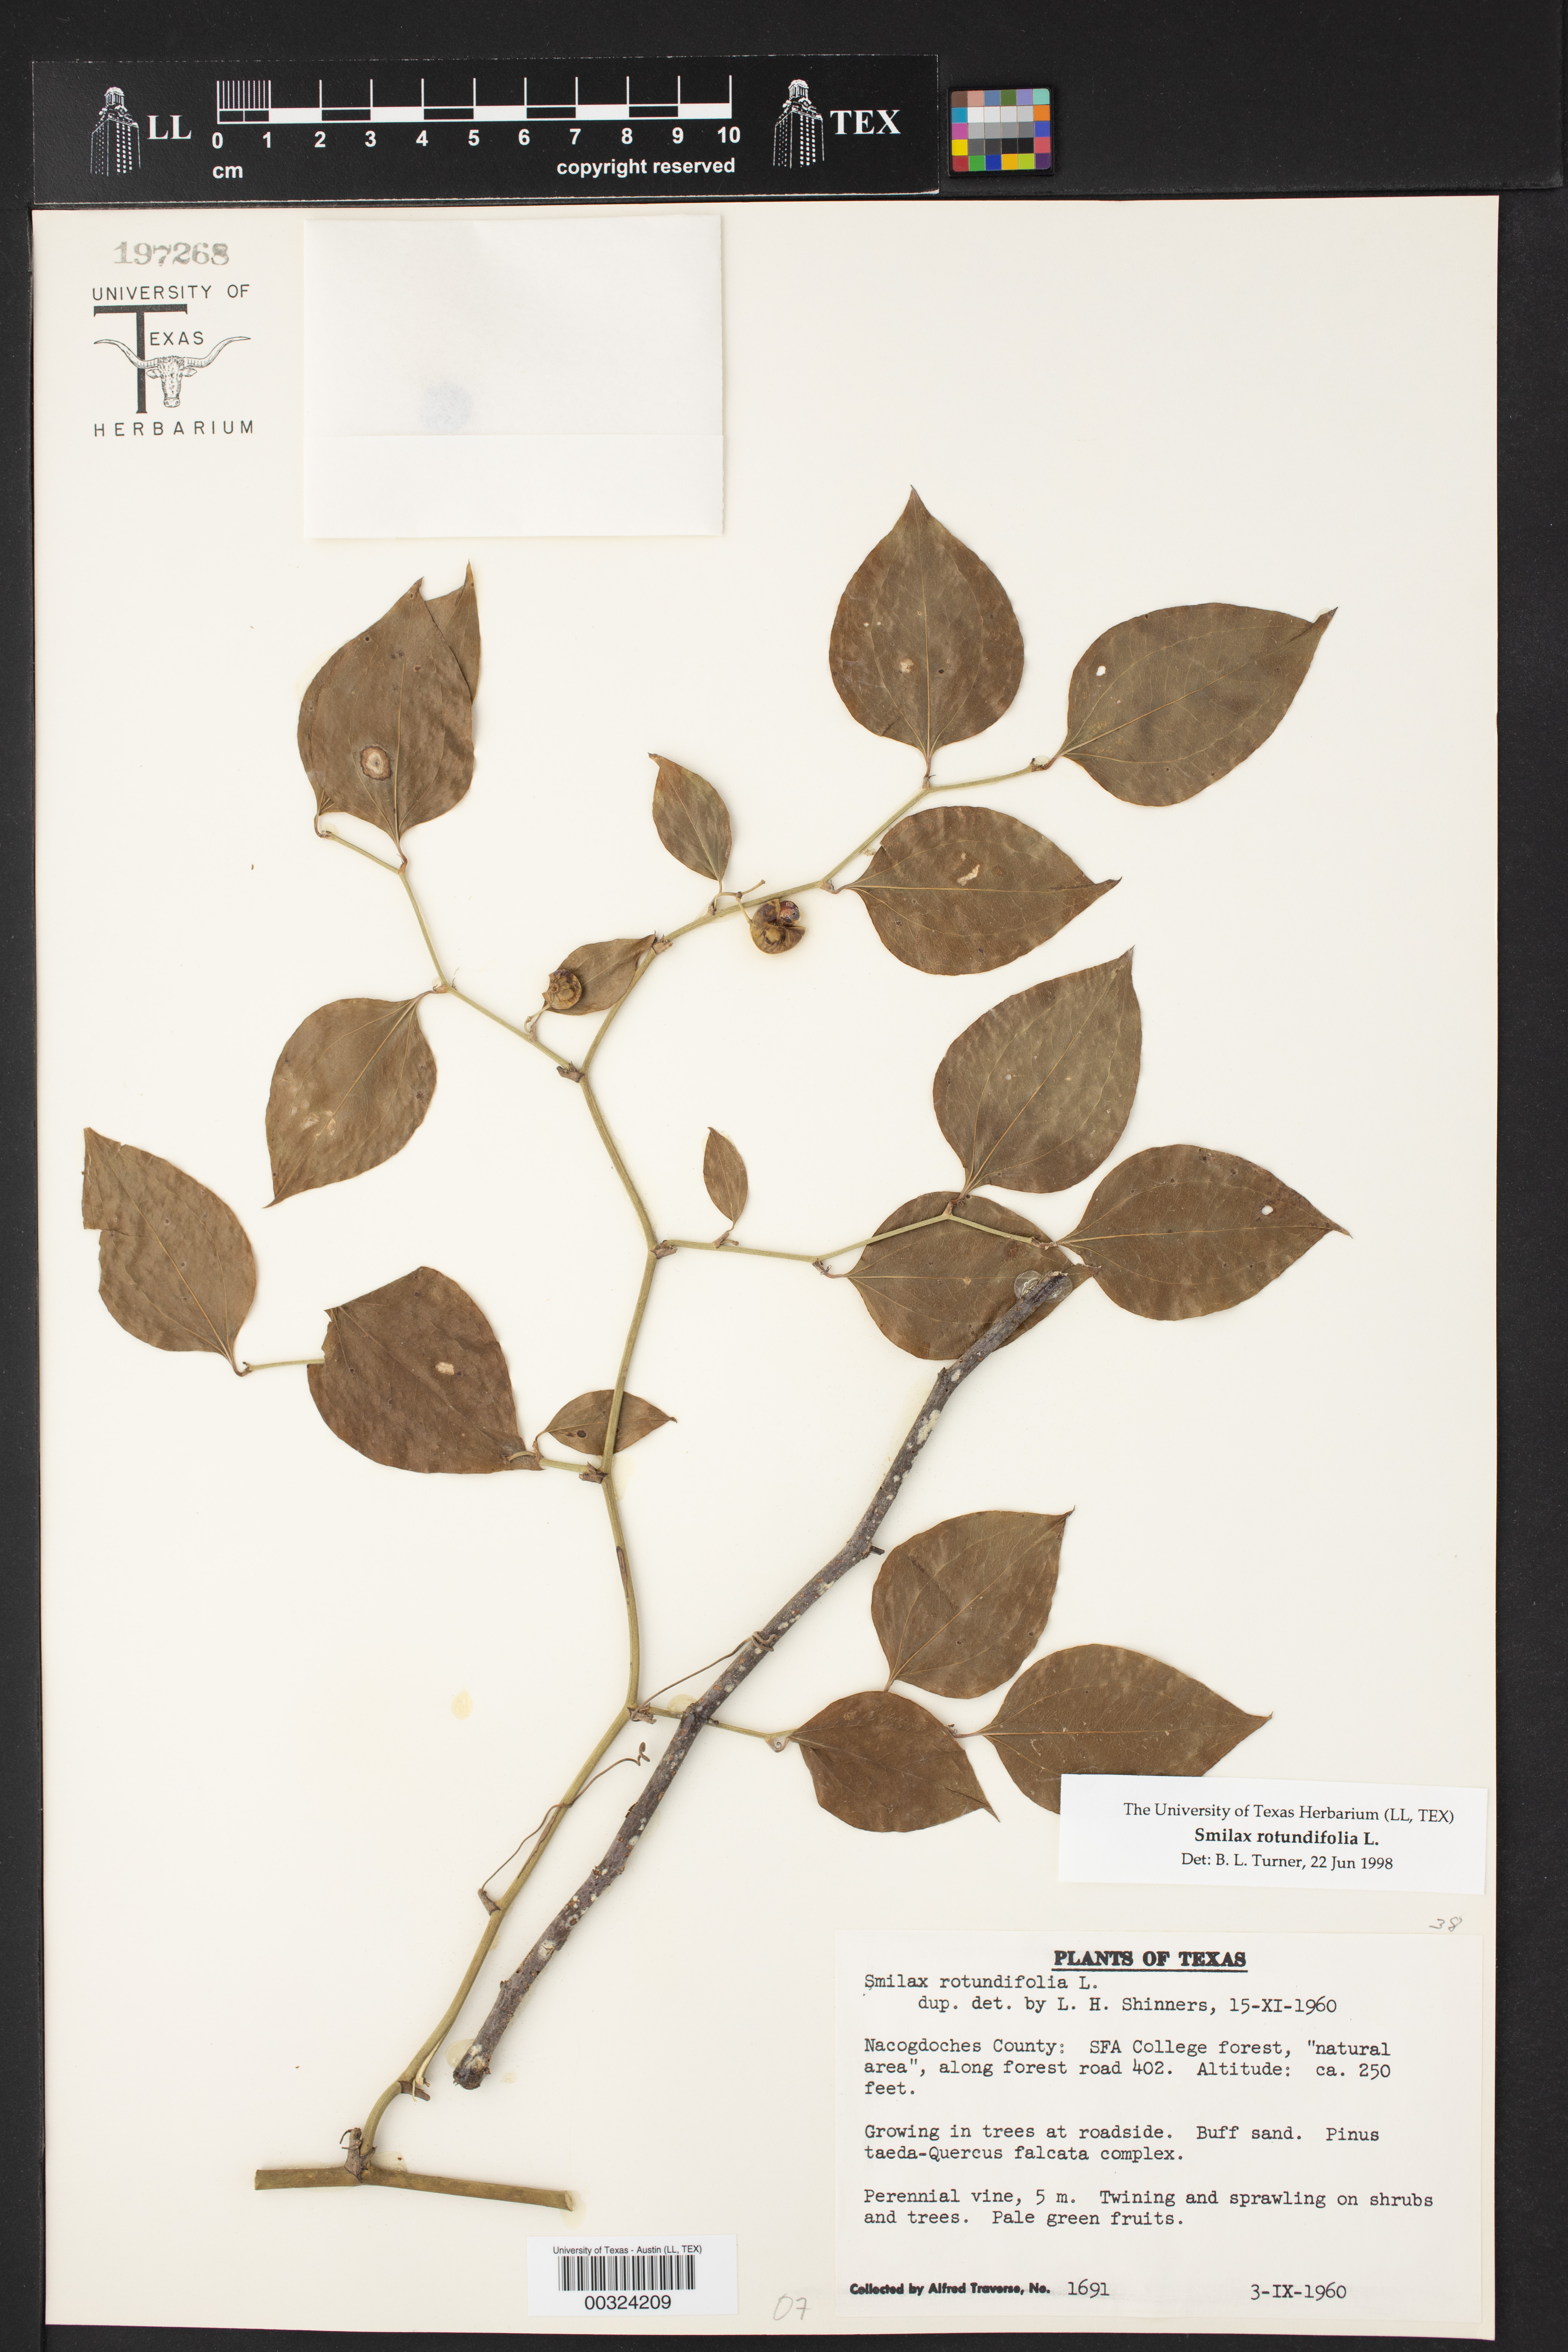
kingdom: Plantae
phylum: Tracheophyta
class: Liliopsida
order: Liliales
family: Smilacaceae
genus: Smilax
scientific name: Smilax rotundifolia
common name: Bullbriar
